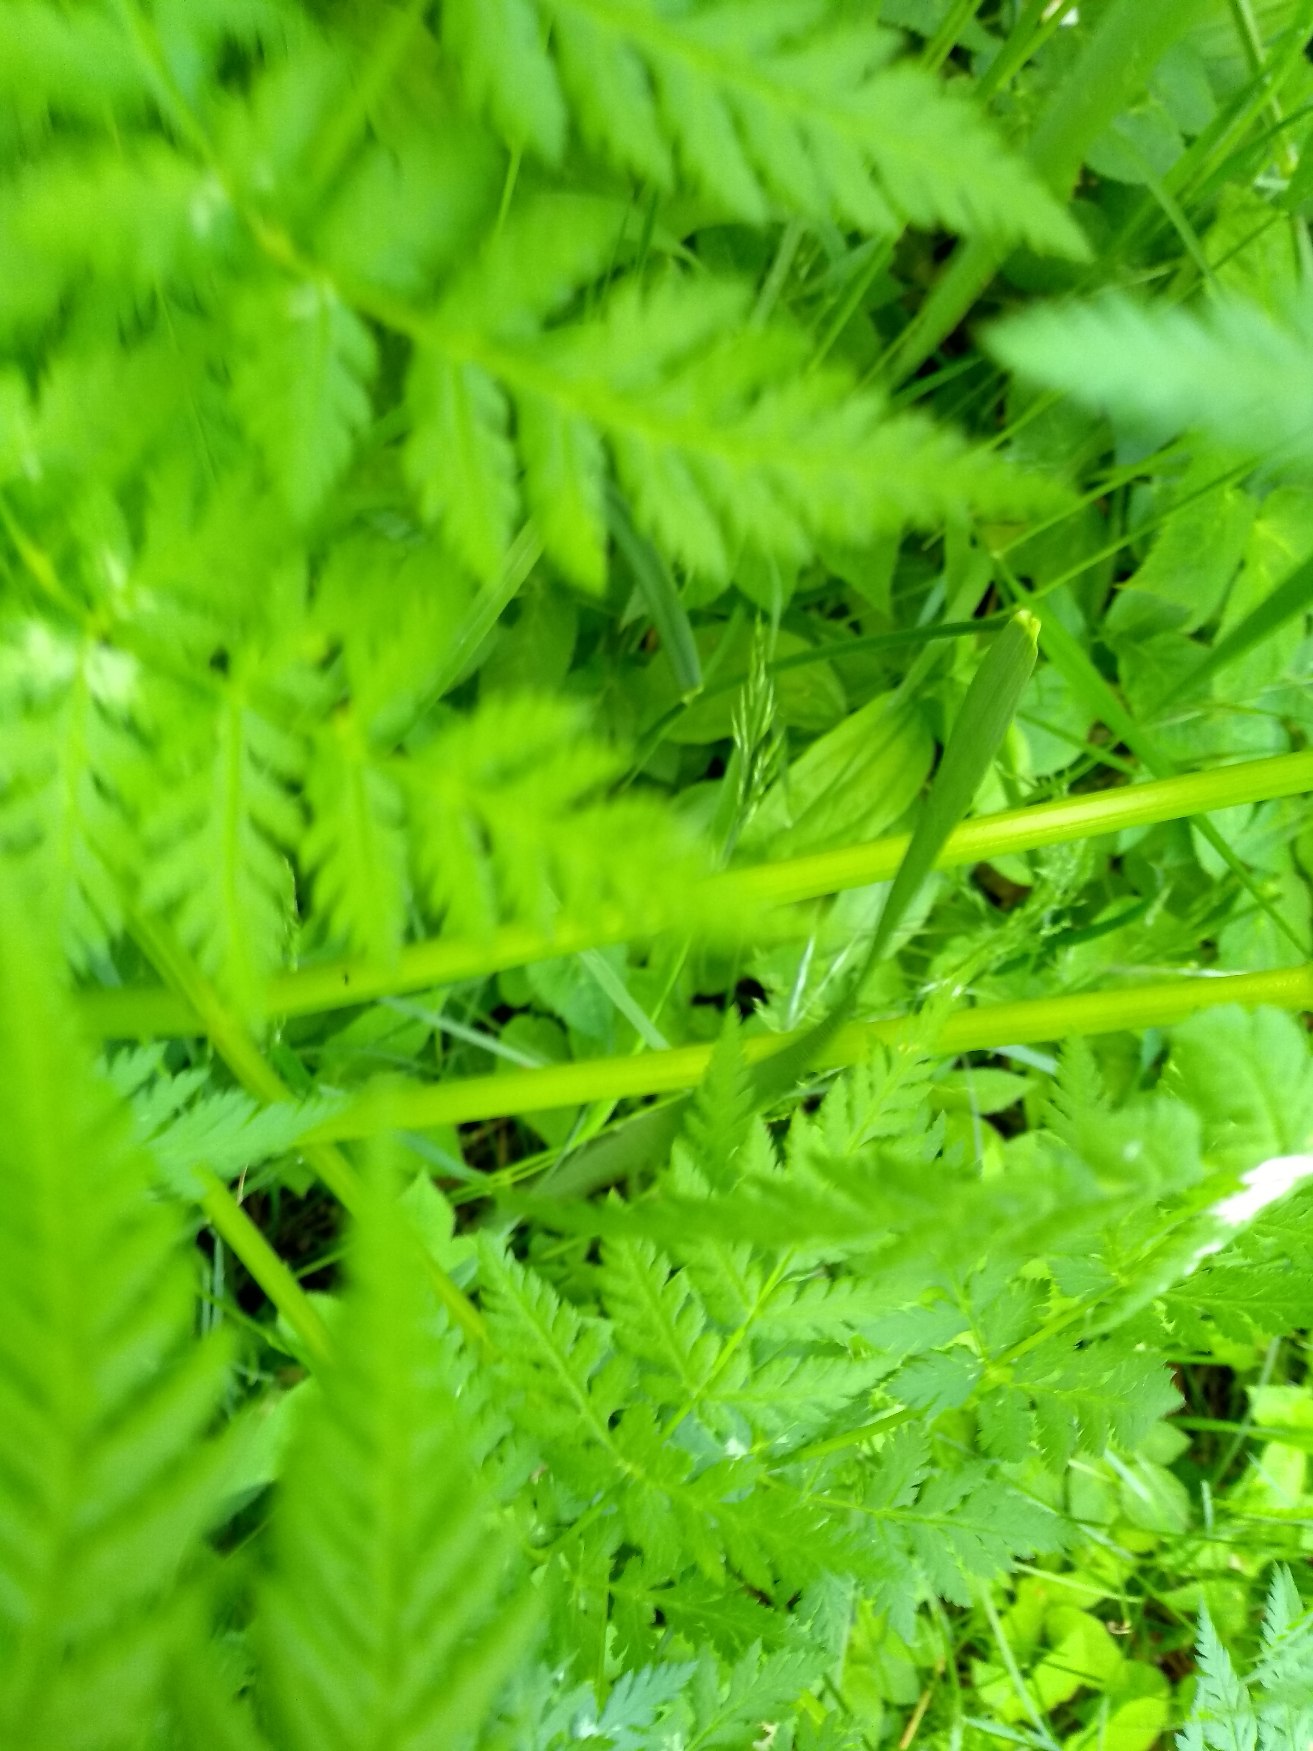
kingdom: Plantae
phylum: Tracheophyta
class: Magnoliopsida
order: Apiales
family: Apiaceae
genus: Myrrhis
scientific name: Myrrhis odorata
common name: Sødskærm
